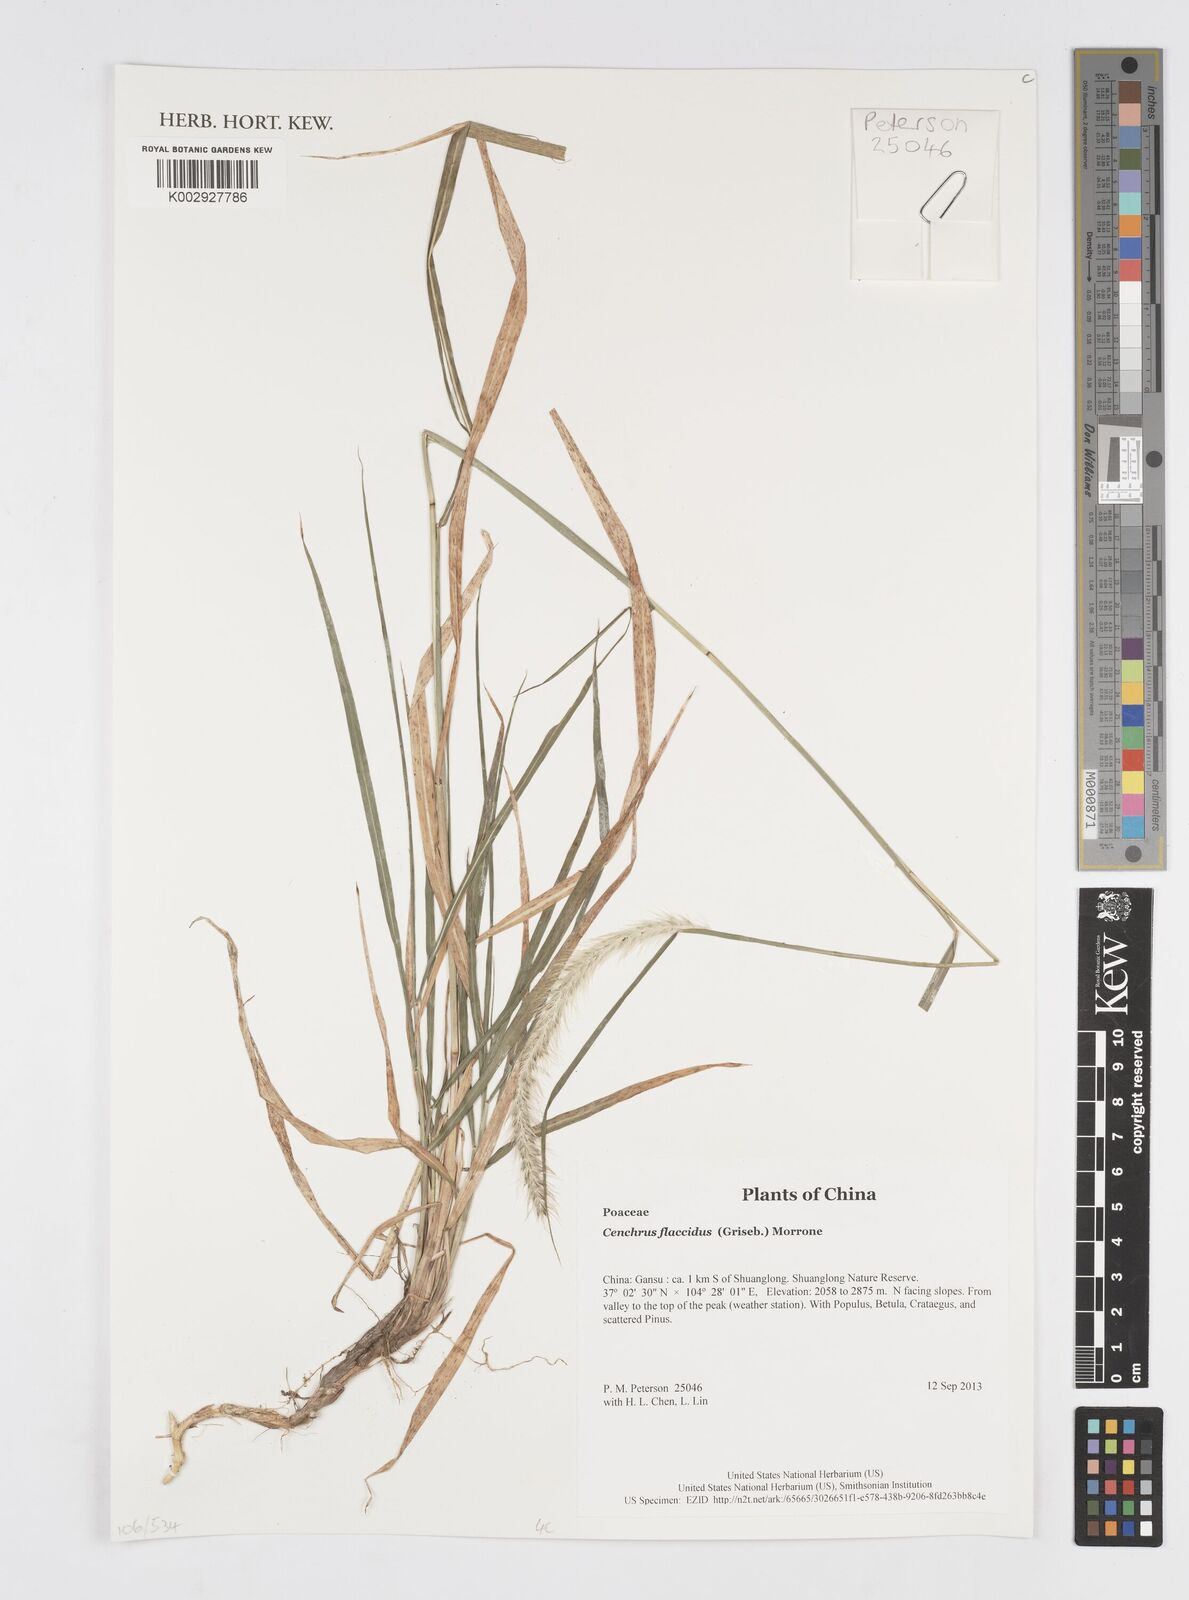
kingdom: Plantae
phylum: Tracheophyta
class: Liliopsida
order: Poales
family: Poaceae
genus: Cenchrus
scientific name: Cenchrus flaccidus
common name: Flaccid grass
